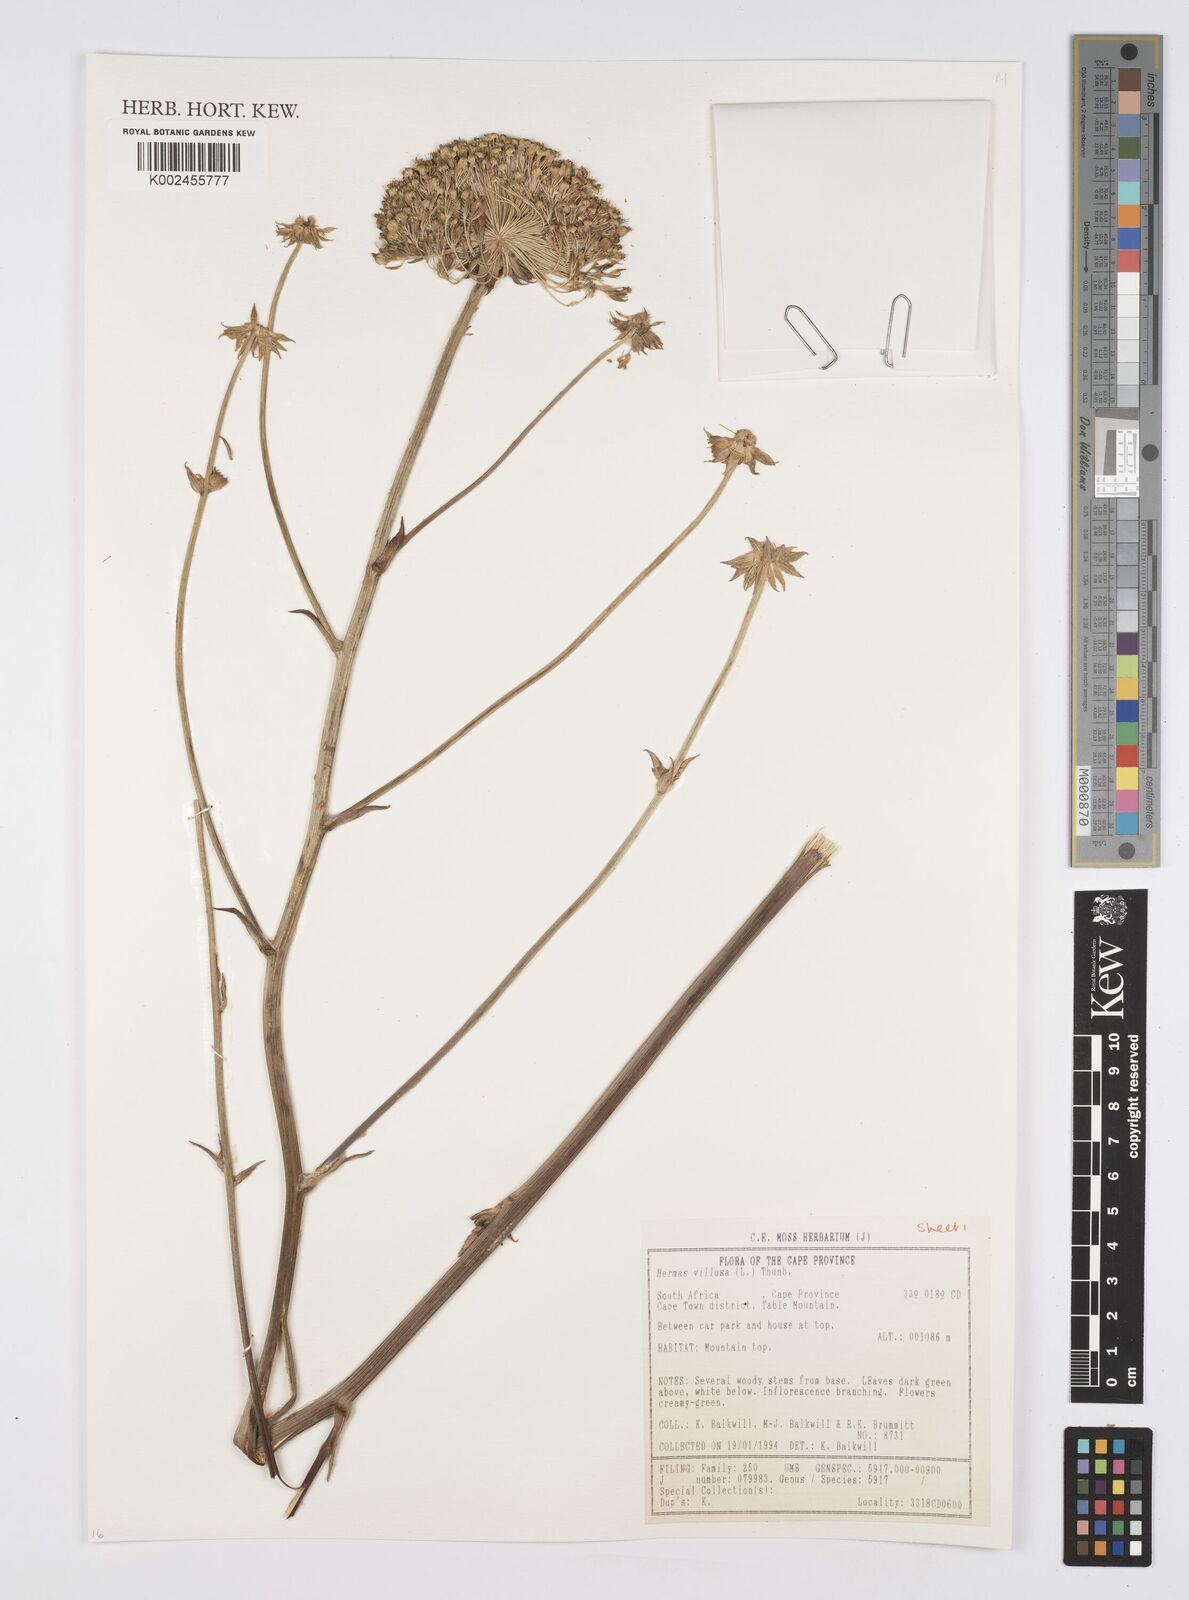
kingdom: Plantae
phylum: Tracheophyta
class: Magnoliopsida
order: Apiales
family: Apiaceae
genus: Hermas
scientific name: Hermas villosa
